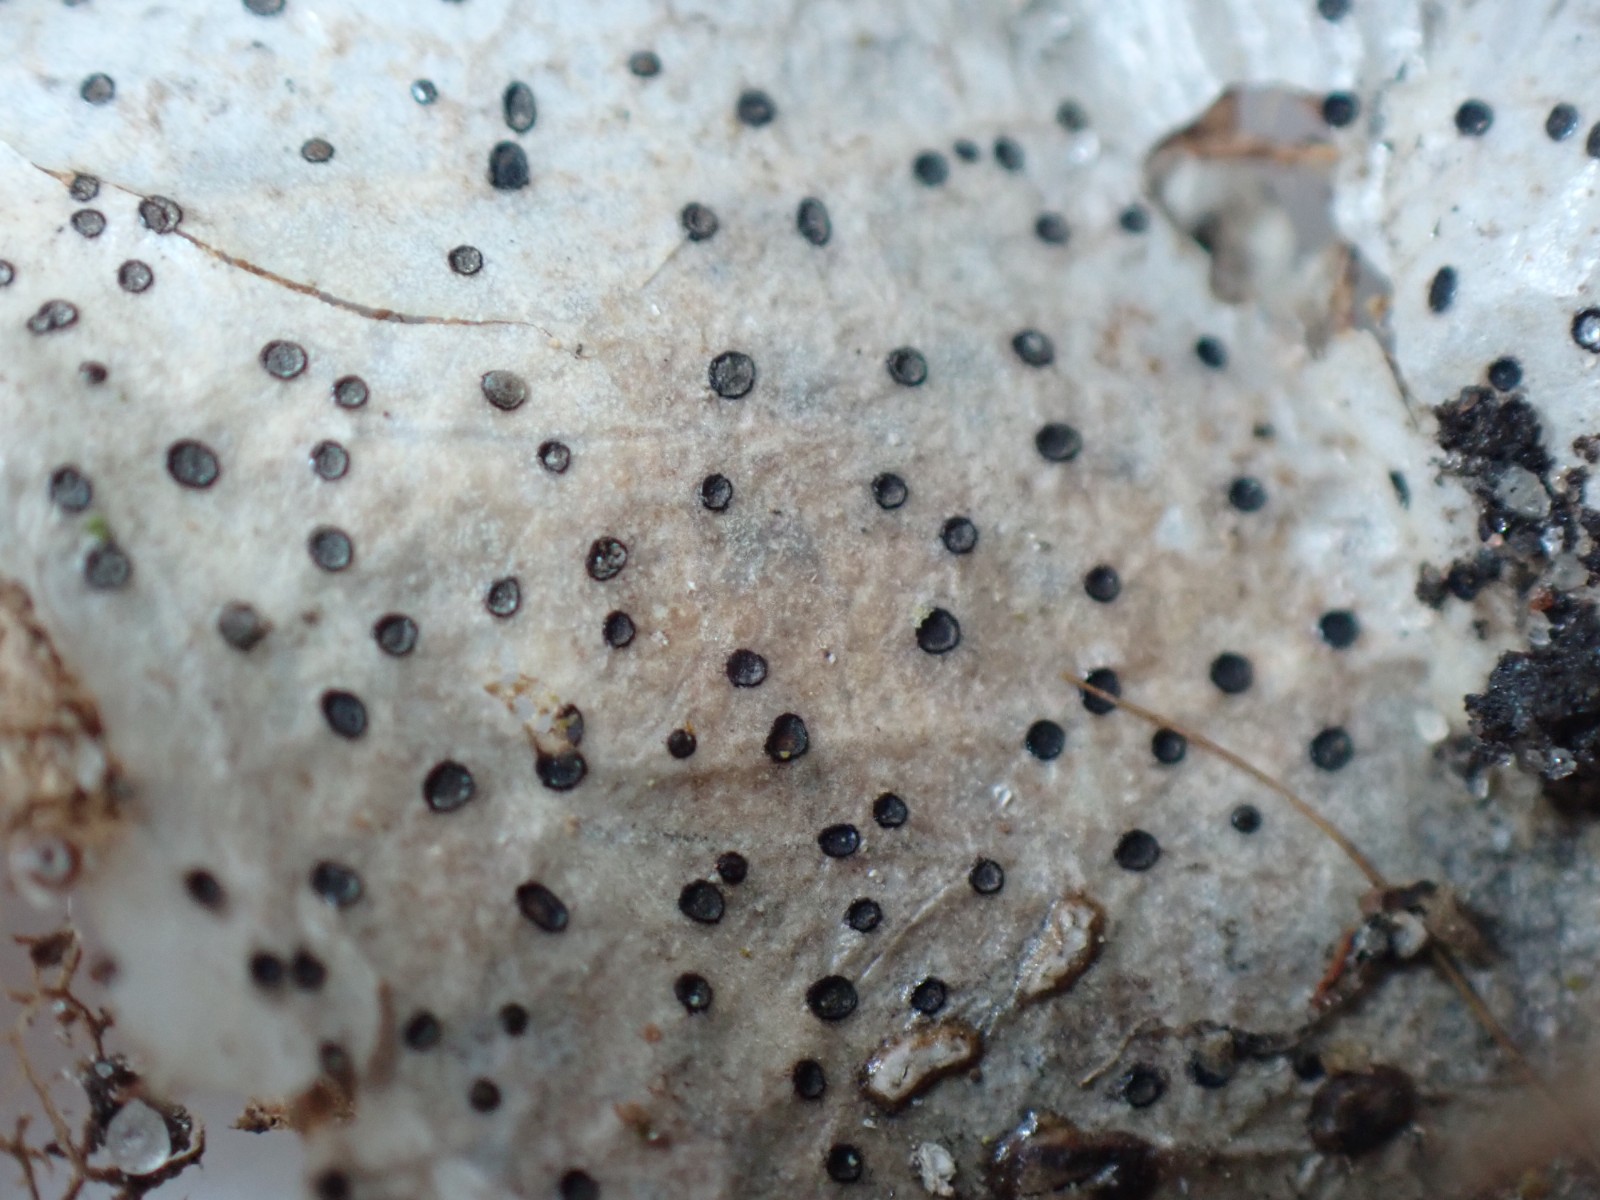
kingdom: Fungi
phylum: Ascomycota
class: Leotiomycetes
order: Helotiales
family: Cenangiaceae
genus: Trochila
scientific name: Trochila ilicina
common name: kristtorn-lågskive
